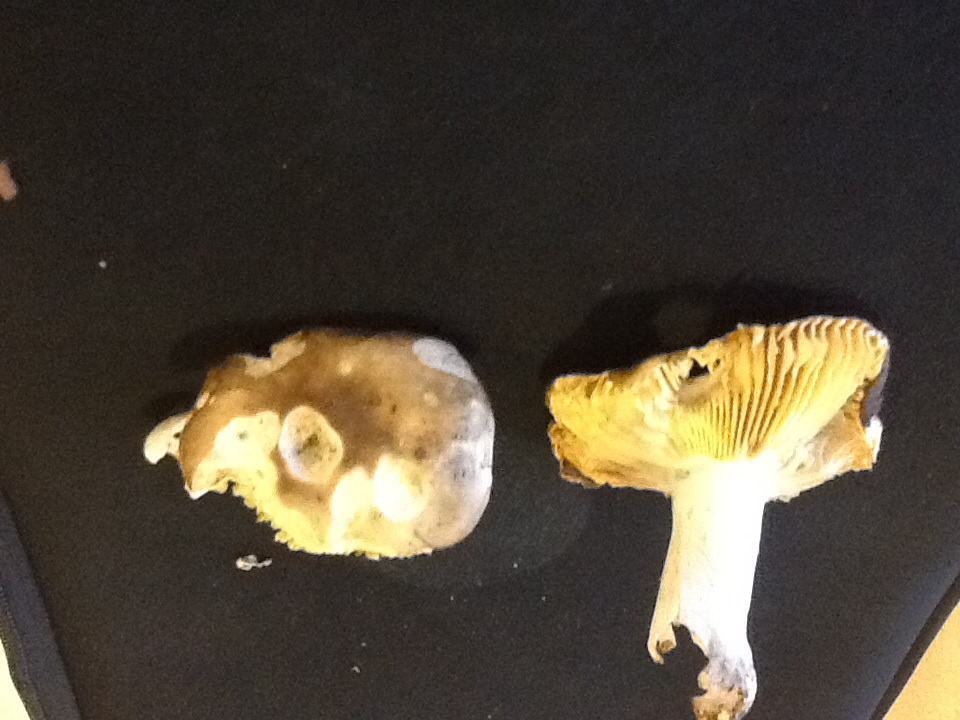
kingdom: Fungi
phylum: Basidiomycota
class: Agaricomycetes
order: Russulales
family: Russulaceae
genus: Russula
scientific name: Russula cuprea
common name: kanel-skørhat
